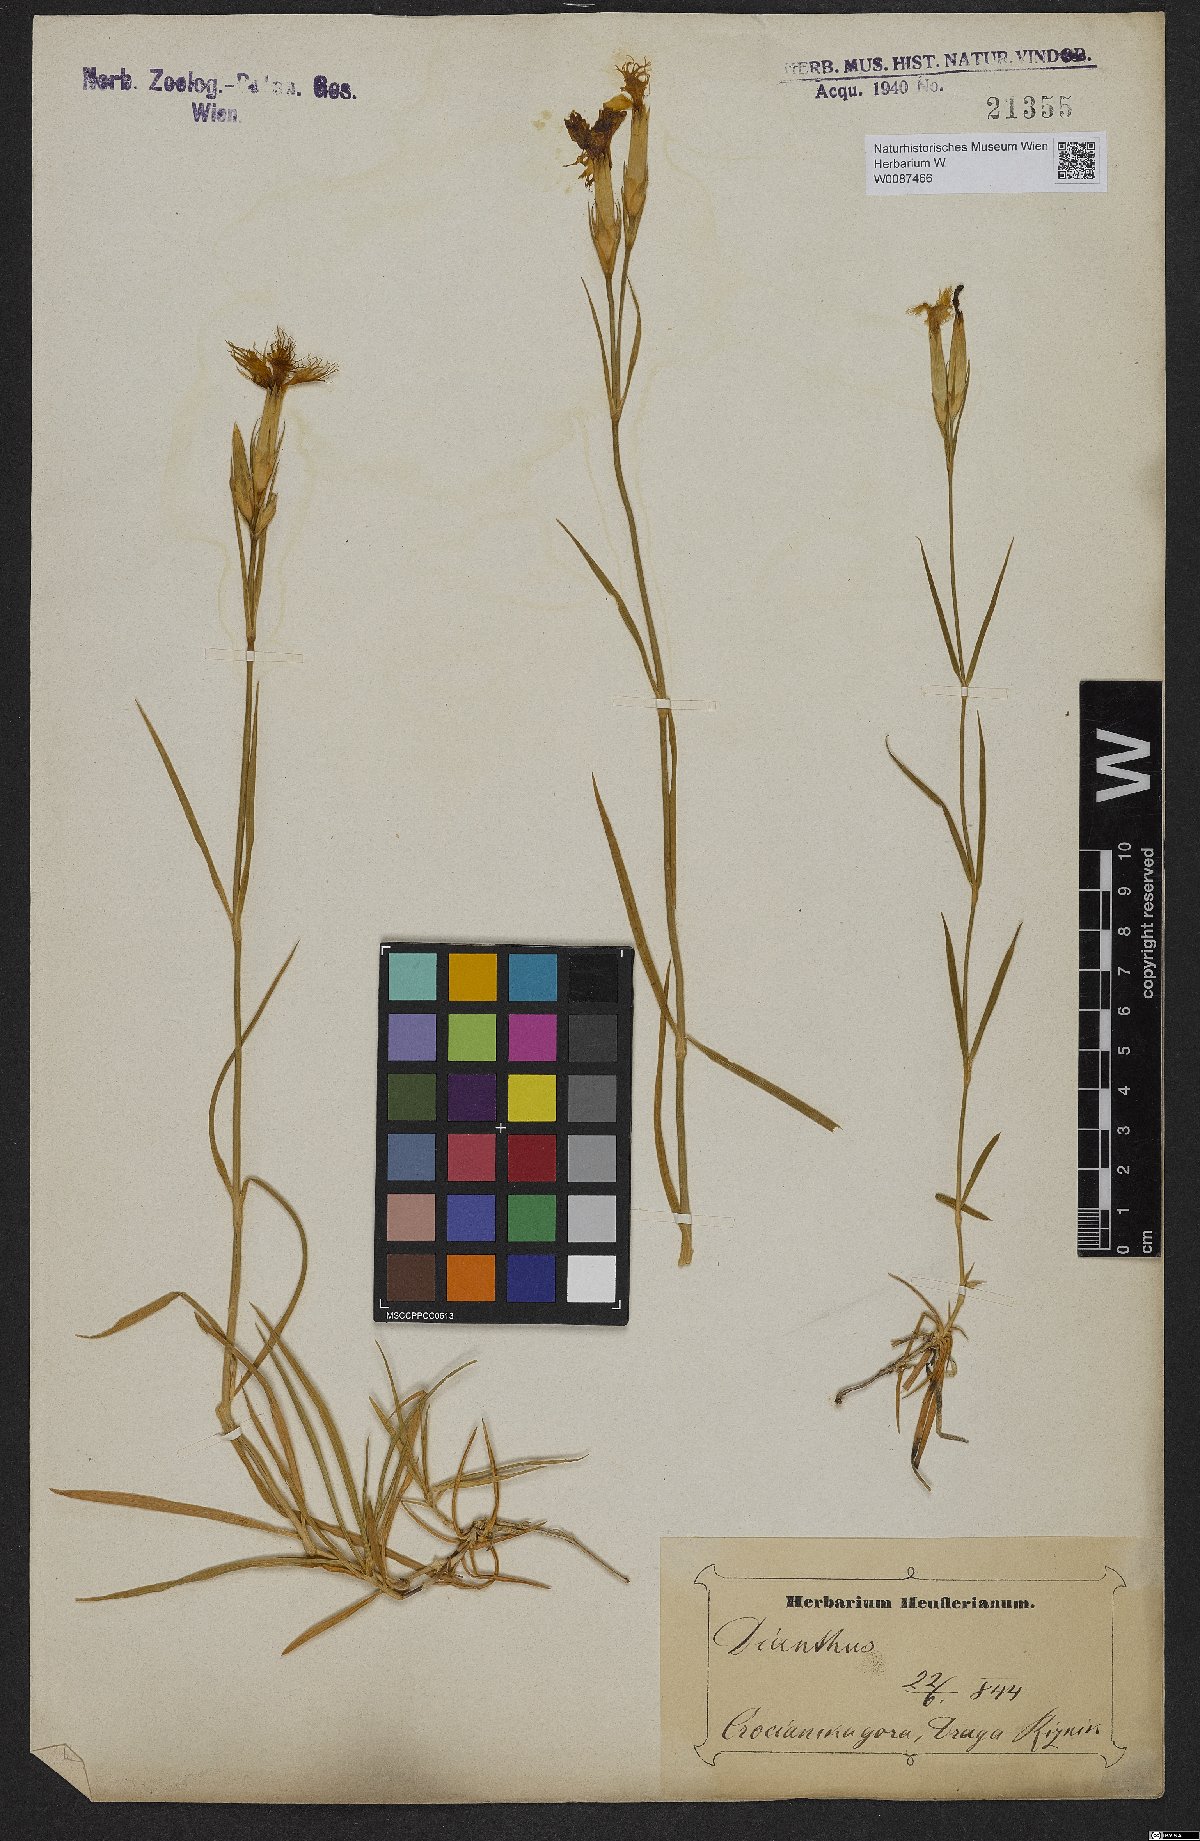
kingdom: Plantae
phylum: Tracheophyta
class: Magnoliopsida
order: Caryophyllales
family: Caryophyllaceae
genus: Dianthus
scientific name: Dianthus
